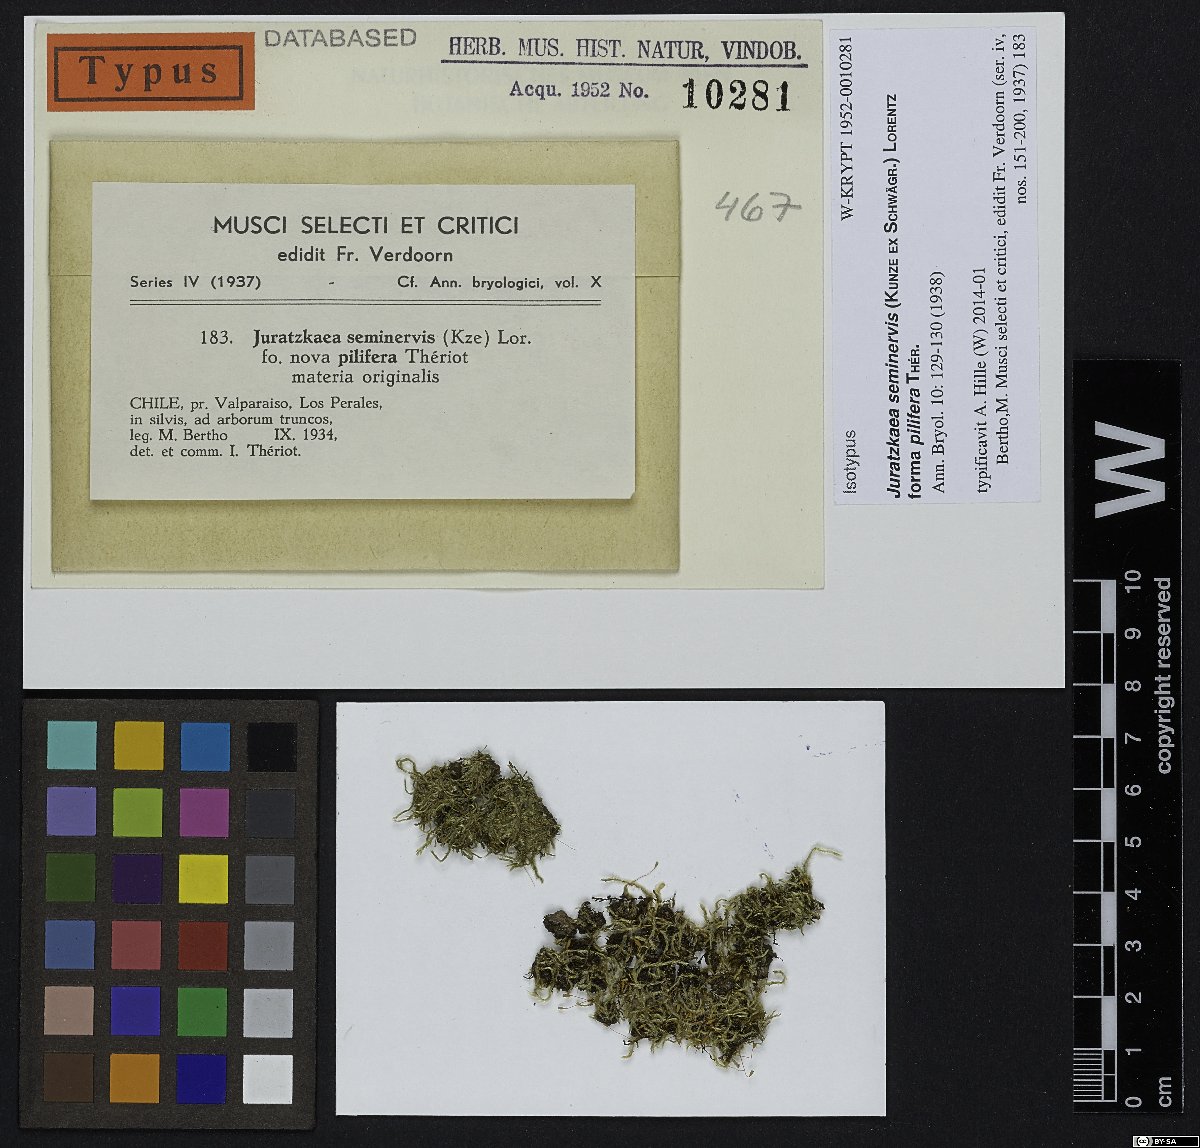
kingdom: Plantae
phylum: Bryophyta
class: Bryopsida
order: Hypnales
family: Stereophyllaceae
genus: Juratzkaea
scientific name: Juratzkaea seminervis
